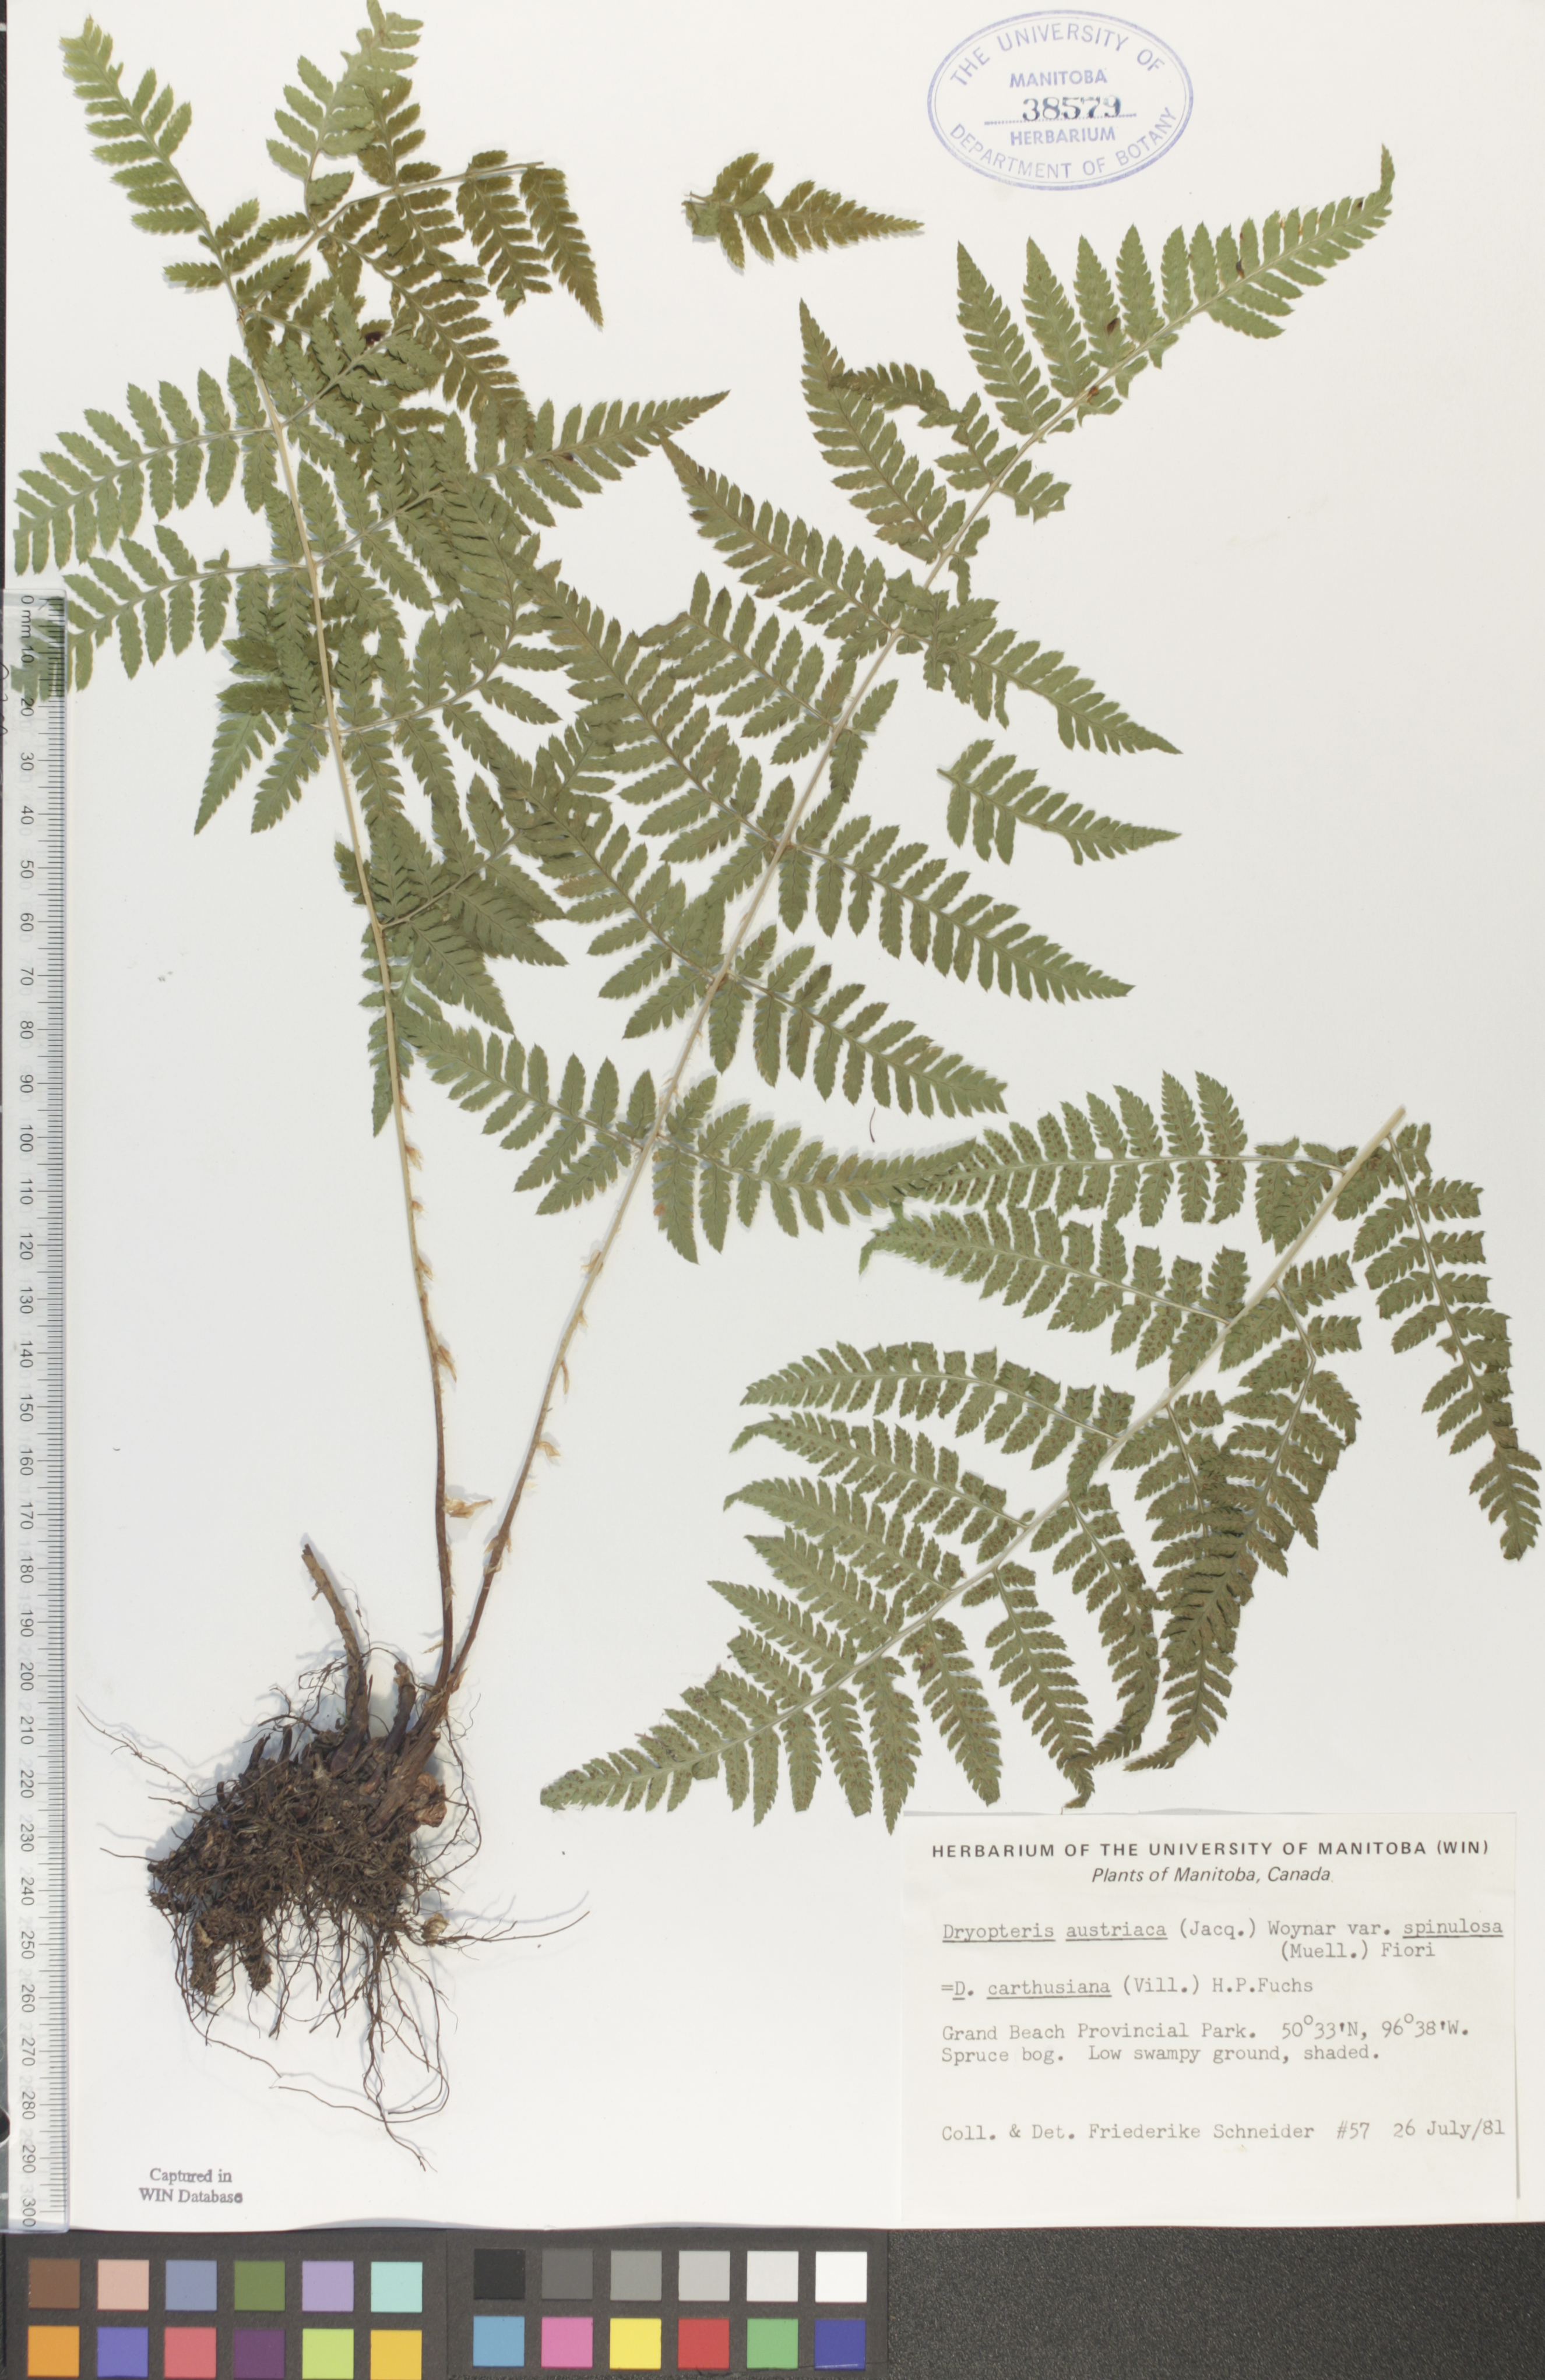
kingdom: Plantae
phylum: Tracheophyta
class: Polypodiopsida
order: Polypodiales
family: Dryopteridaceae
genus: Dryopteris
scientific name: Dryopteris carthusiana
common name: Narrow buckler-fern
